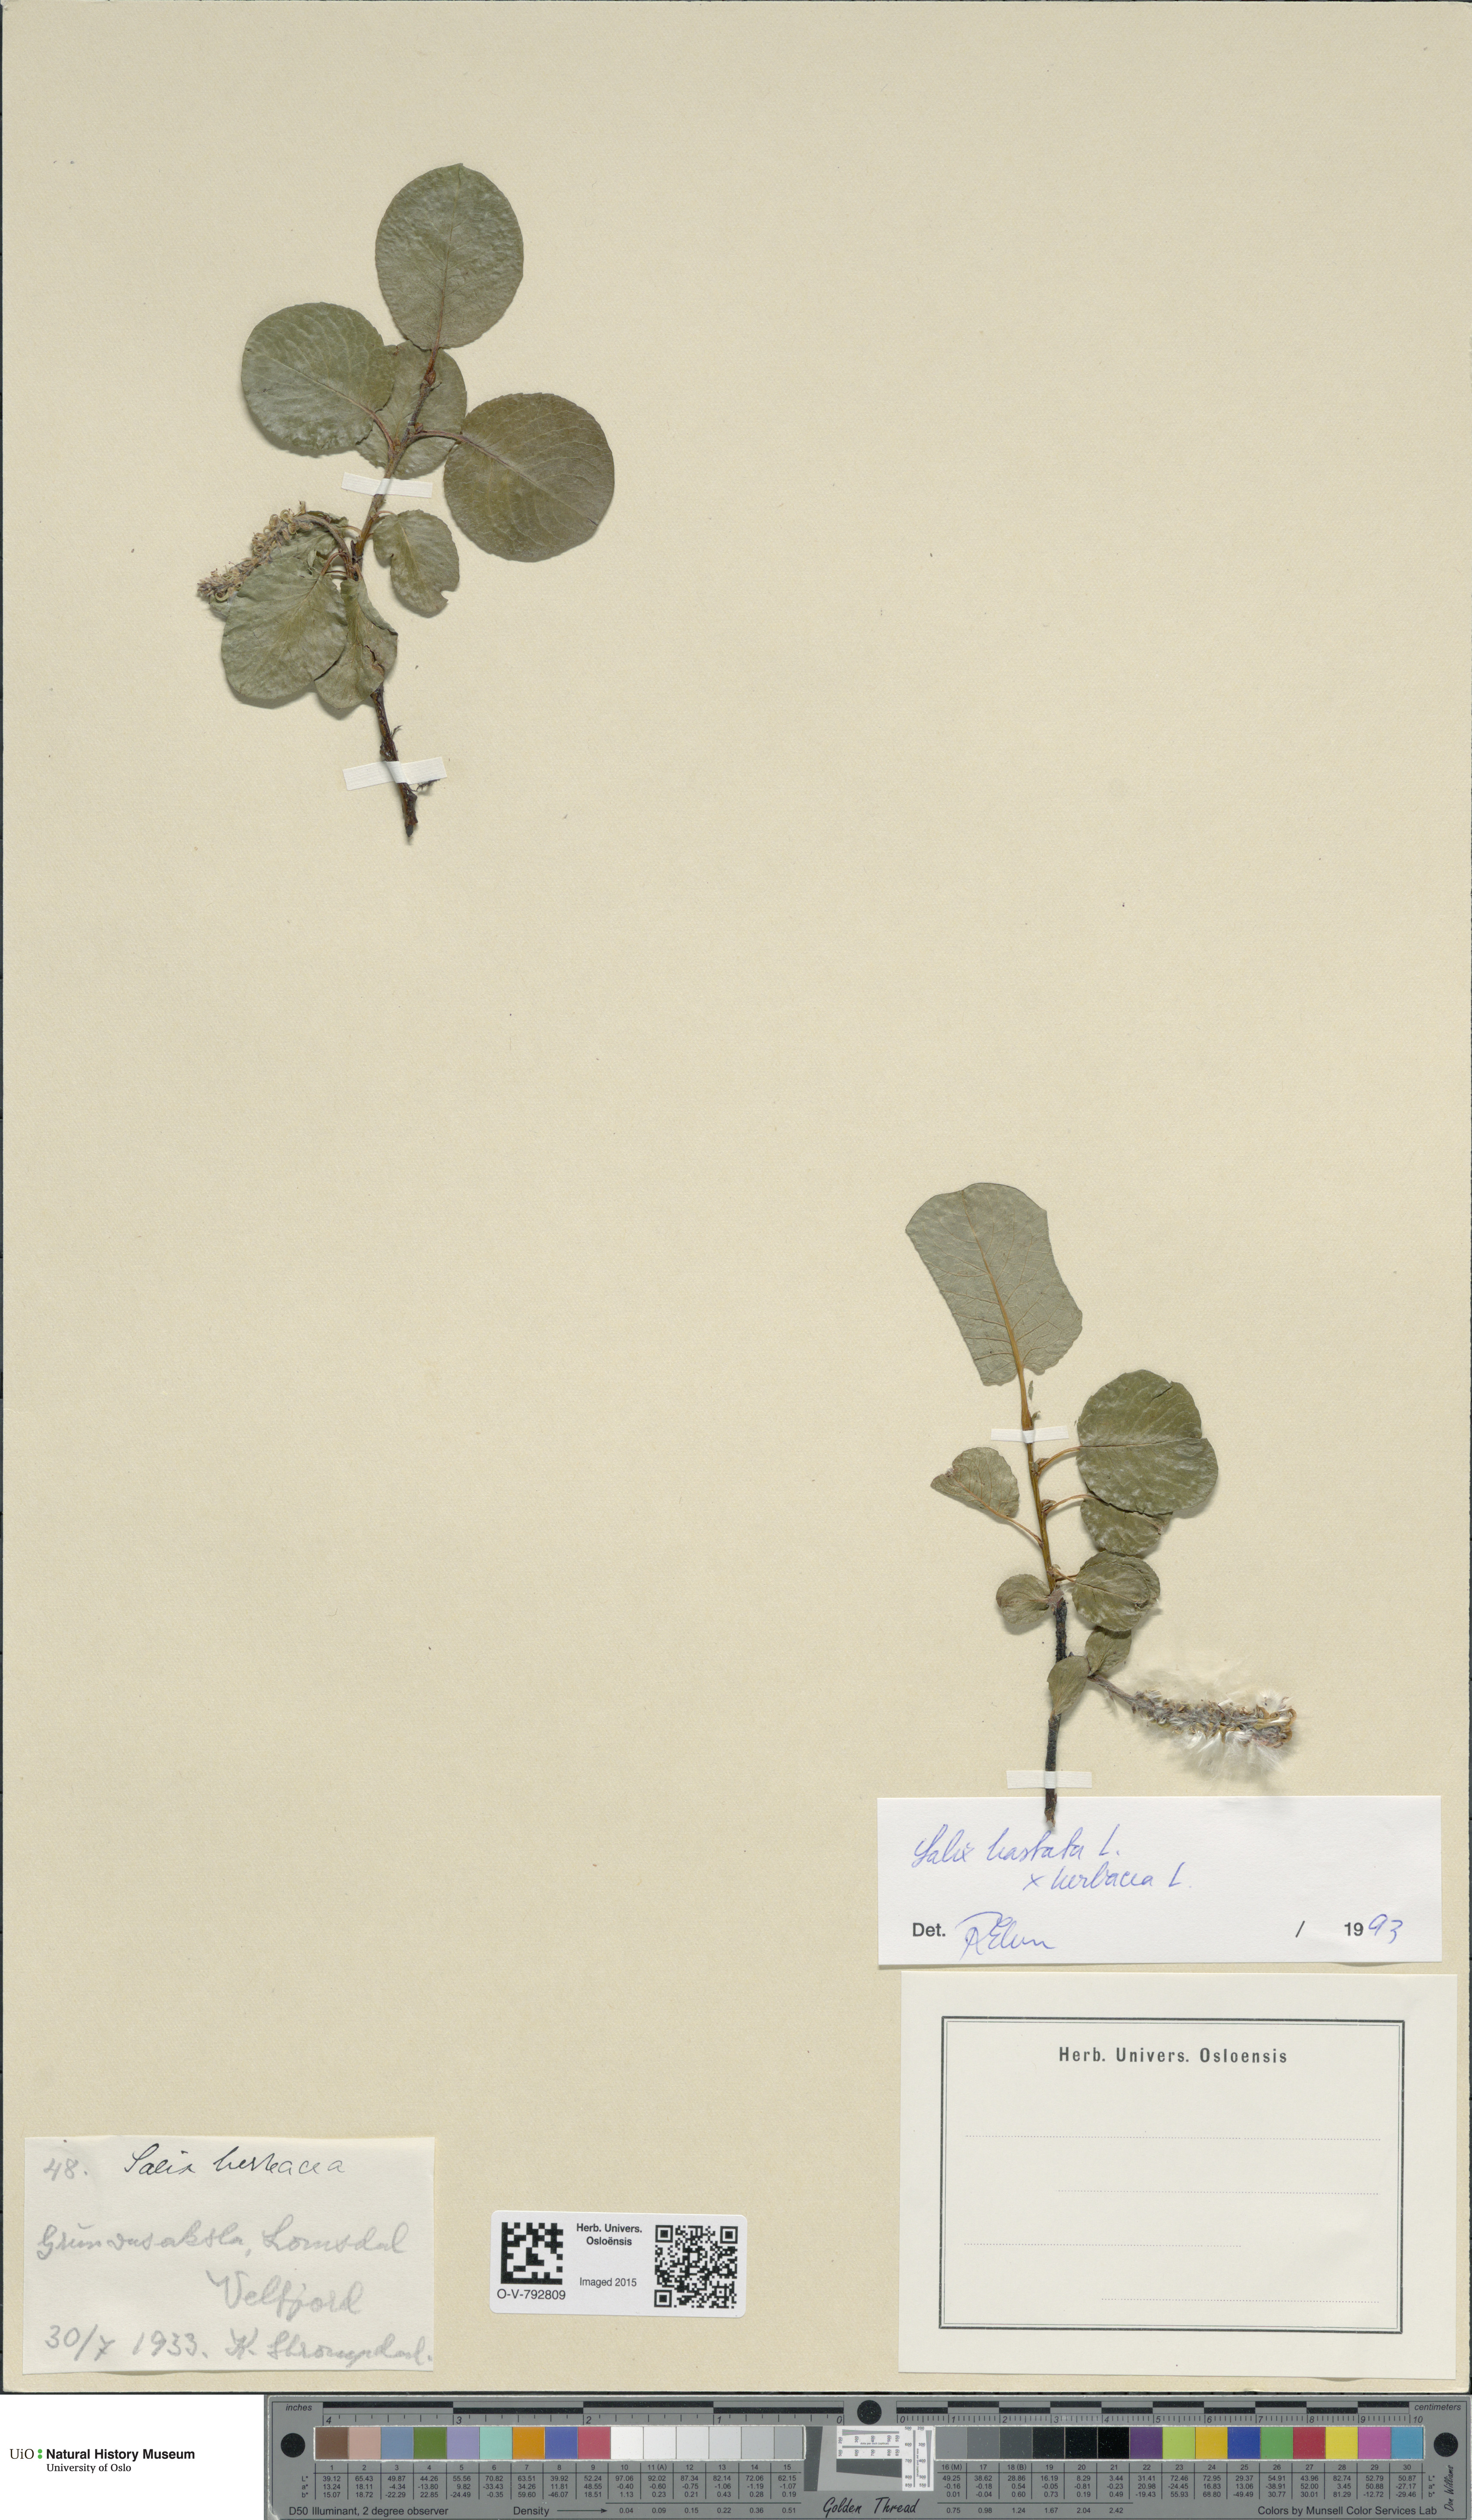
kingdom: Plantae
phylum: Tracheophyta
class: Magnoliopsida
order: Malpighiales
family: Salicaceae
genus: Salix
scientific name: Salix
